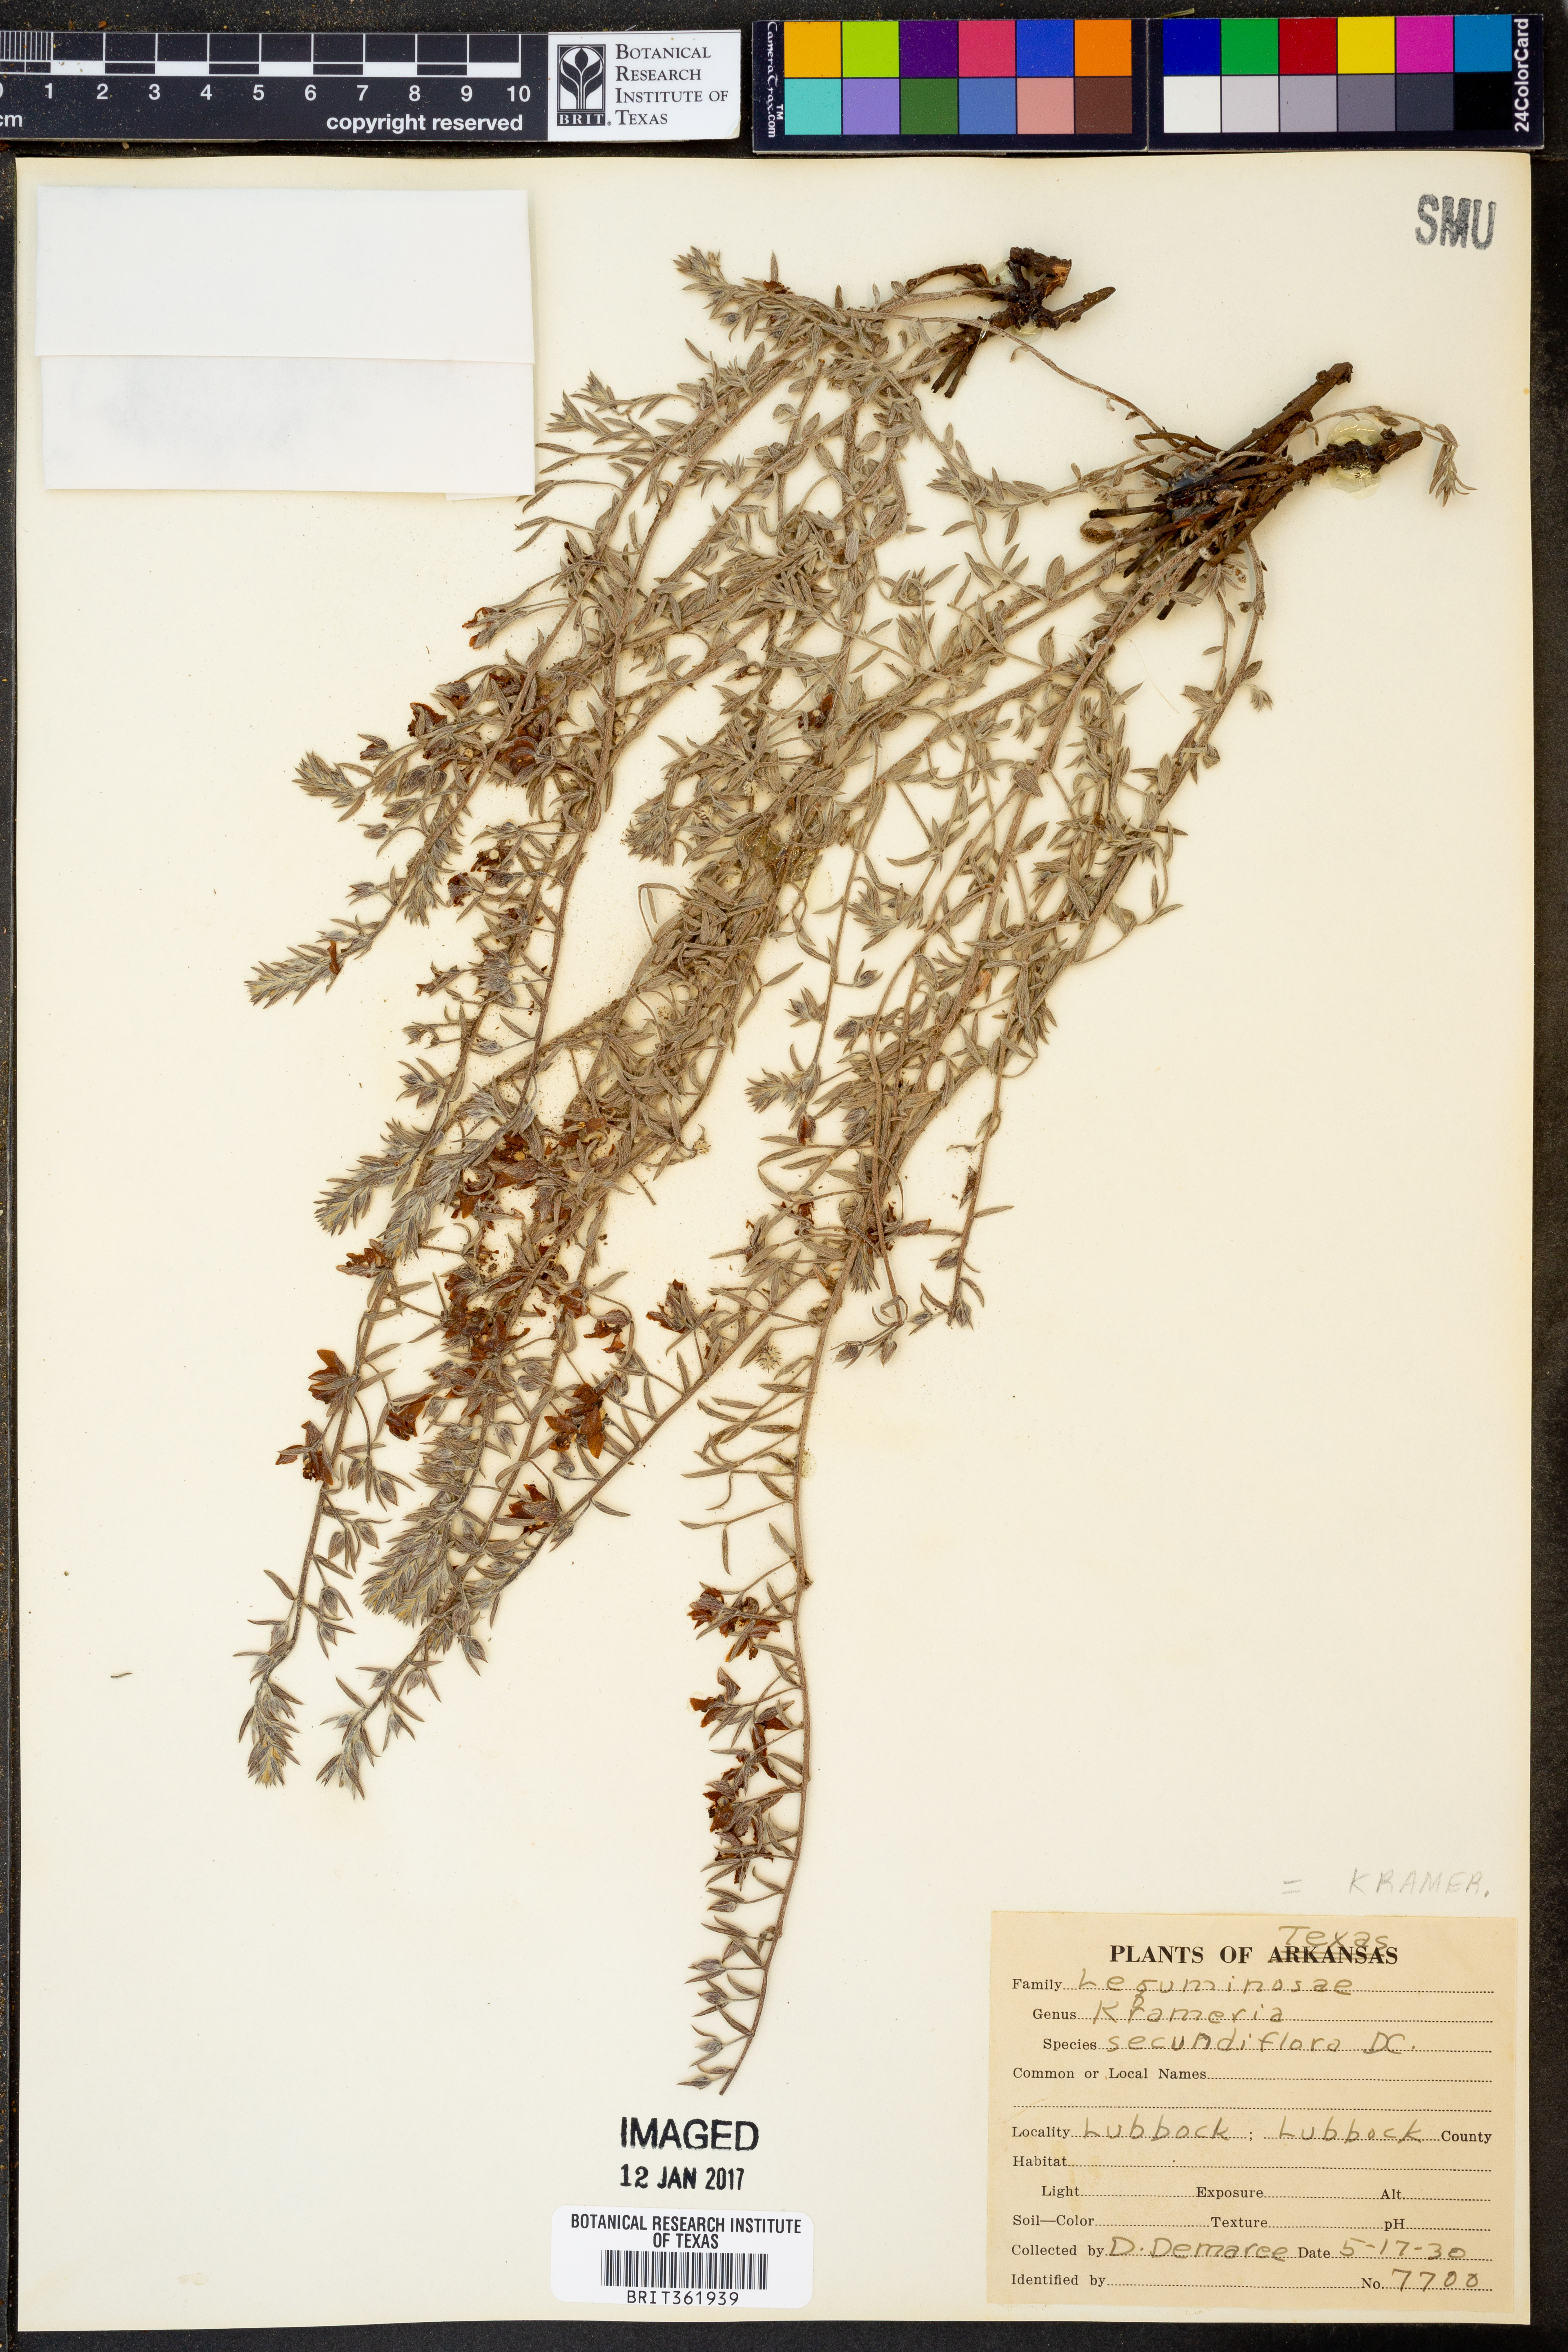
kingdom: Plantae
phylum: Tracheophyta
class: Magnoliopsida
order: Zygophyllales
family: Krameriaceae
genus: Krameria
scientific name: Krameria secundiflora
